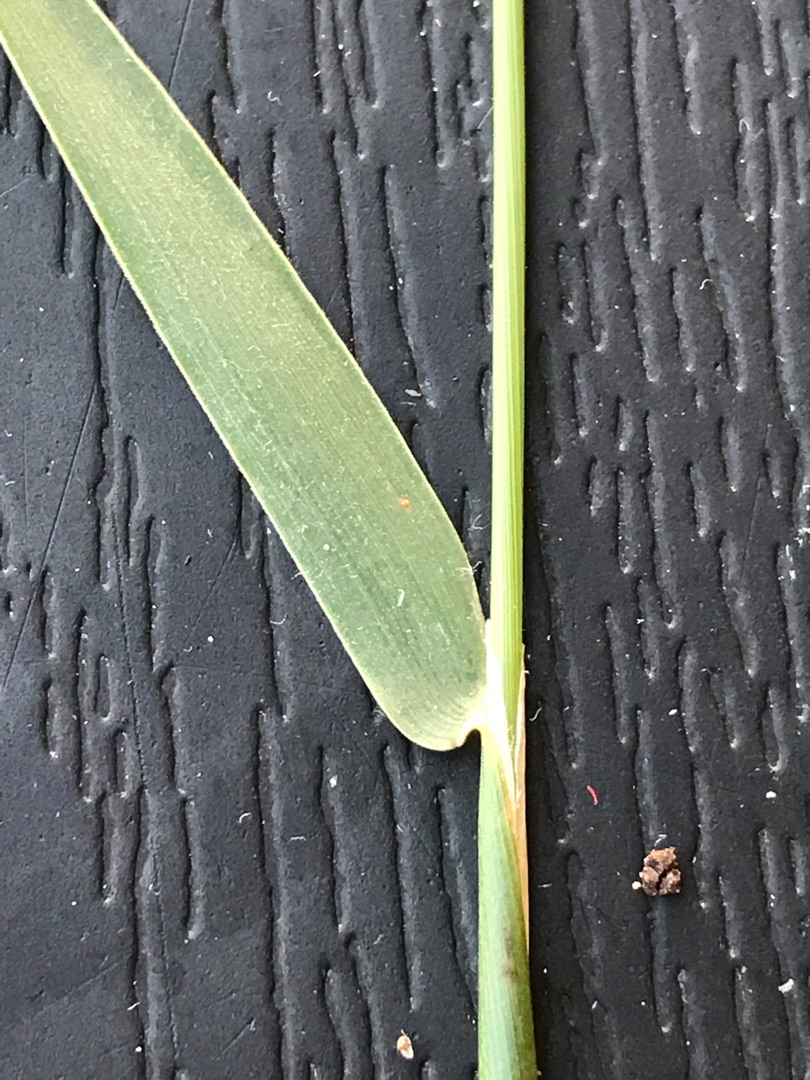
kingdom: Plantae
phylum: Tracheophyta
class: Liliopsida
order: Poales
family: Poaceae
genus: Holcus
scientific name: Holcus mollis
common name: Krybende hestegræs
